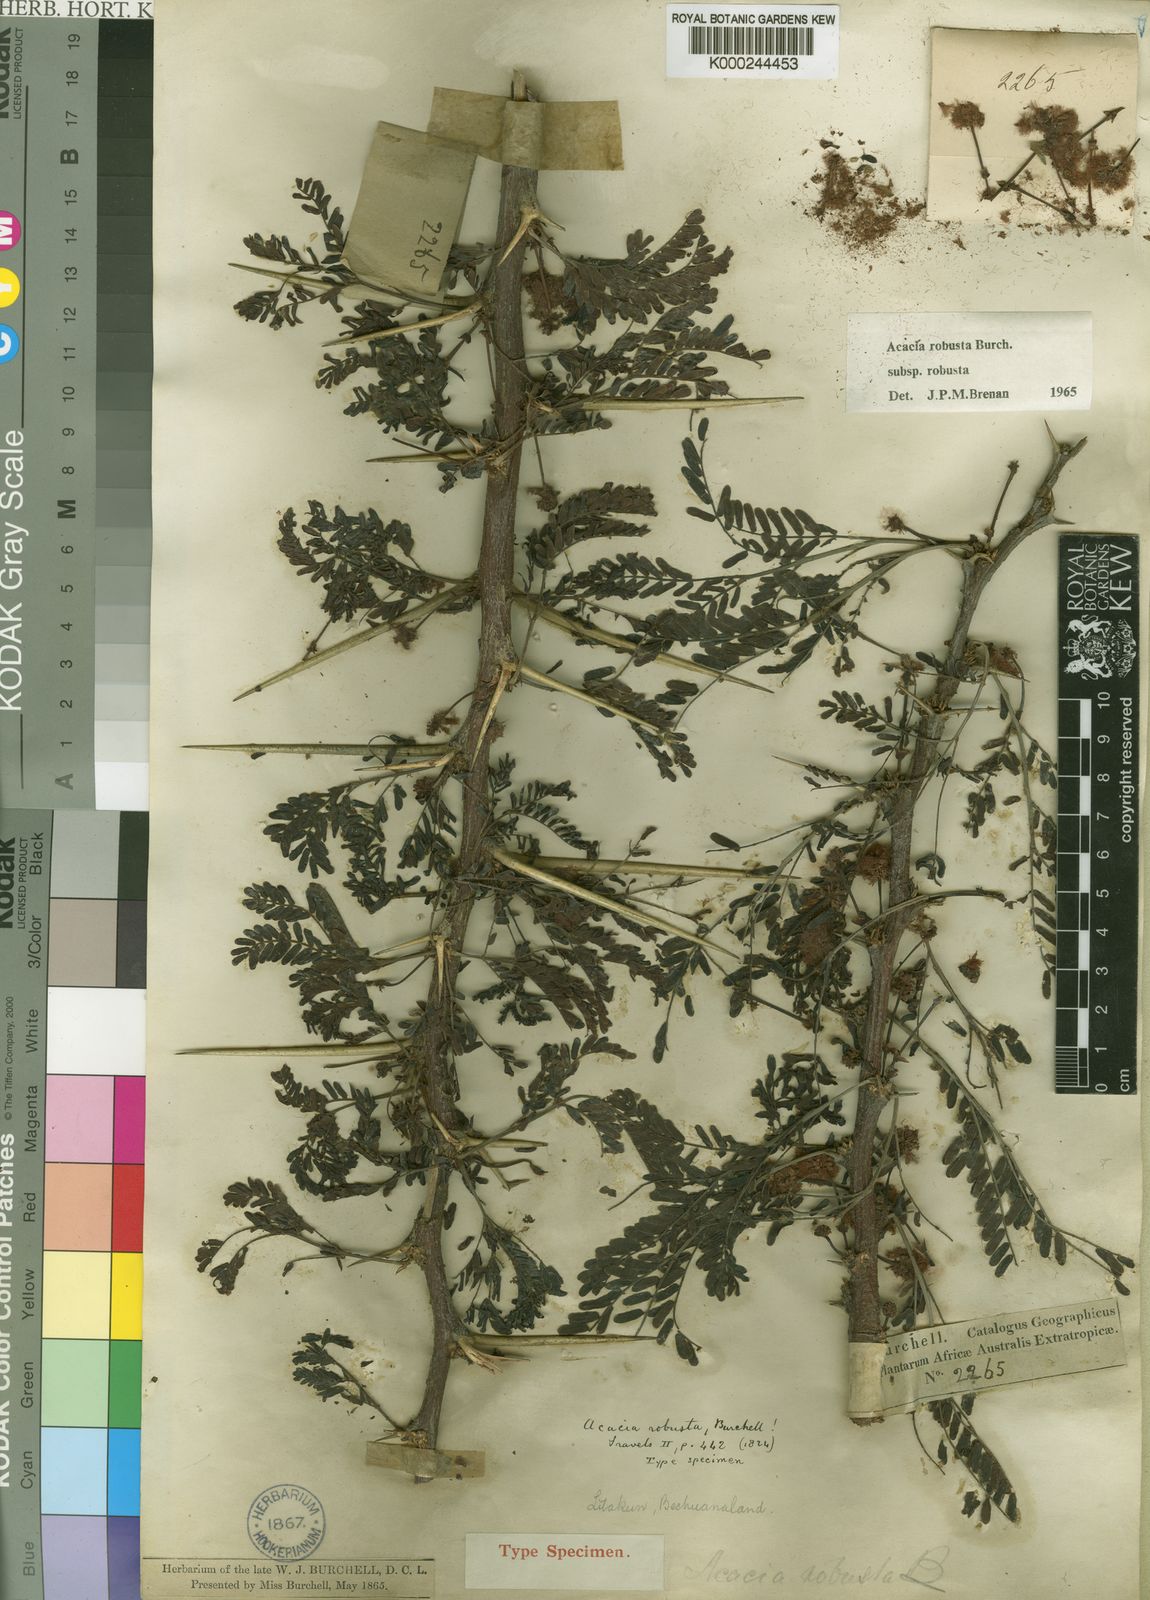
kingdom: Plantae
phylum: Tracheophyta
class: Magnoliopsida
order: Fabales
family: Fabaceae
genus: Vachellia
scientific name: Vachellia robusta
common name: Ankle thorn
